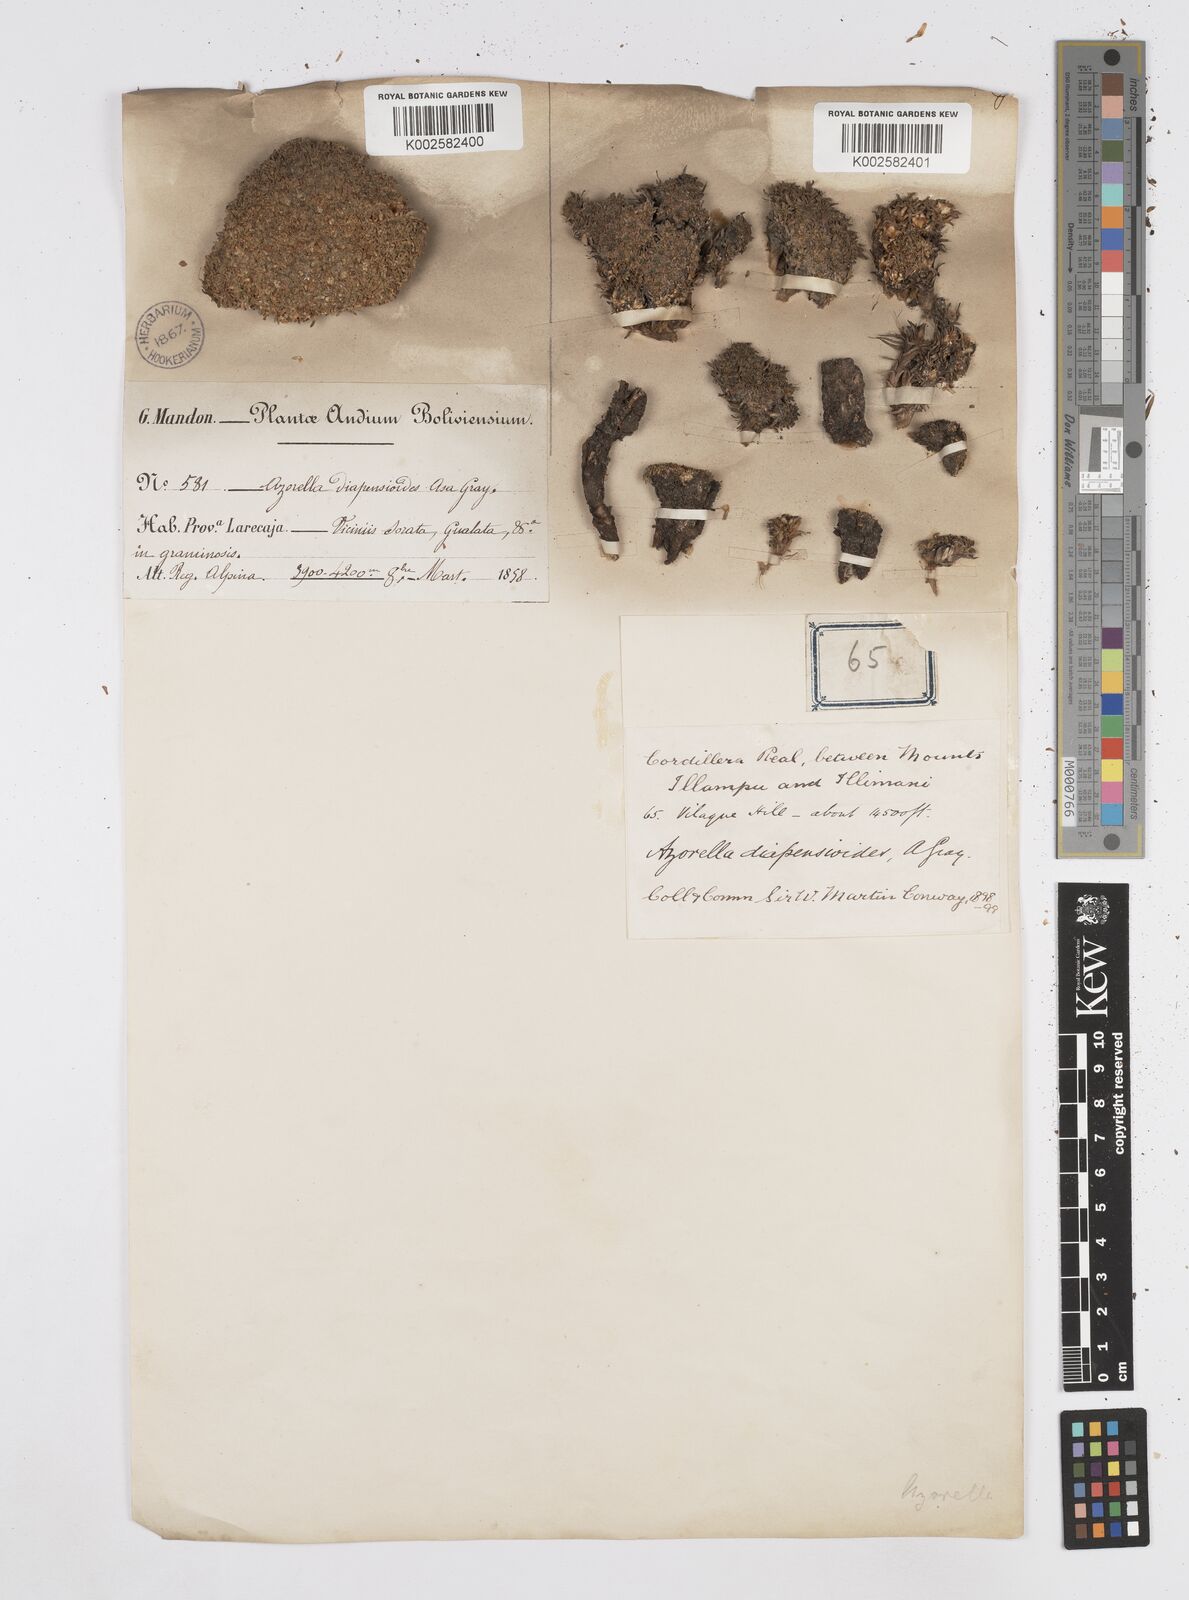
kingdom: Plantae
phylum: Tracheophyta
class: Magnoliopsida
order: Apiales
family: Apiaceae
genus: Azorella
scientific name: Azorella diapensioides
